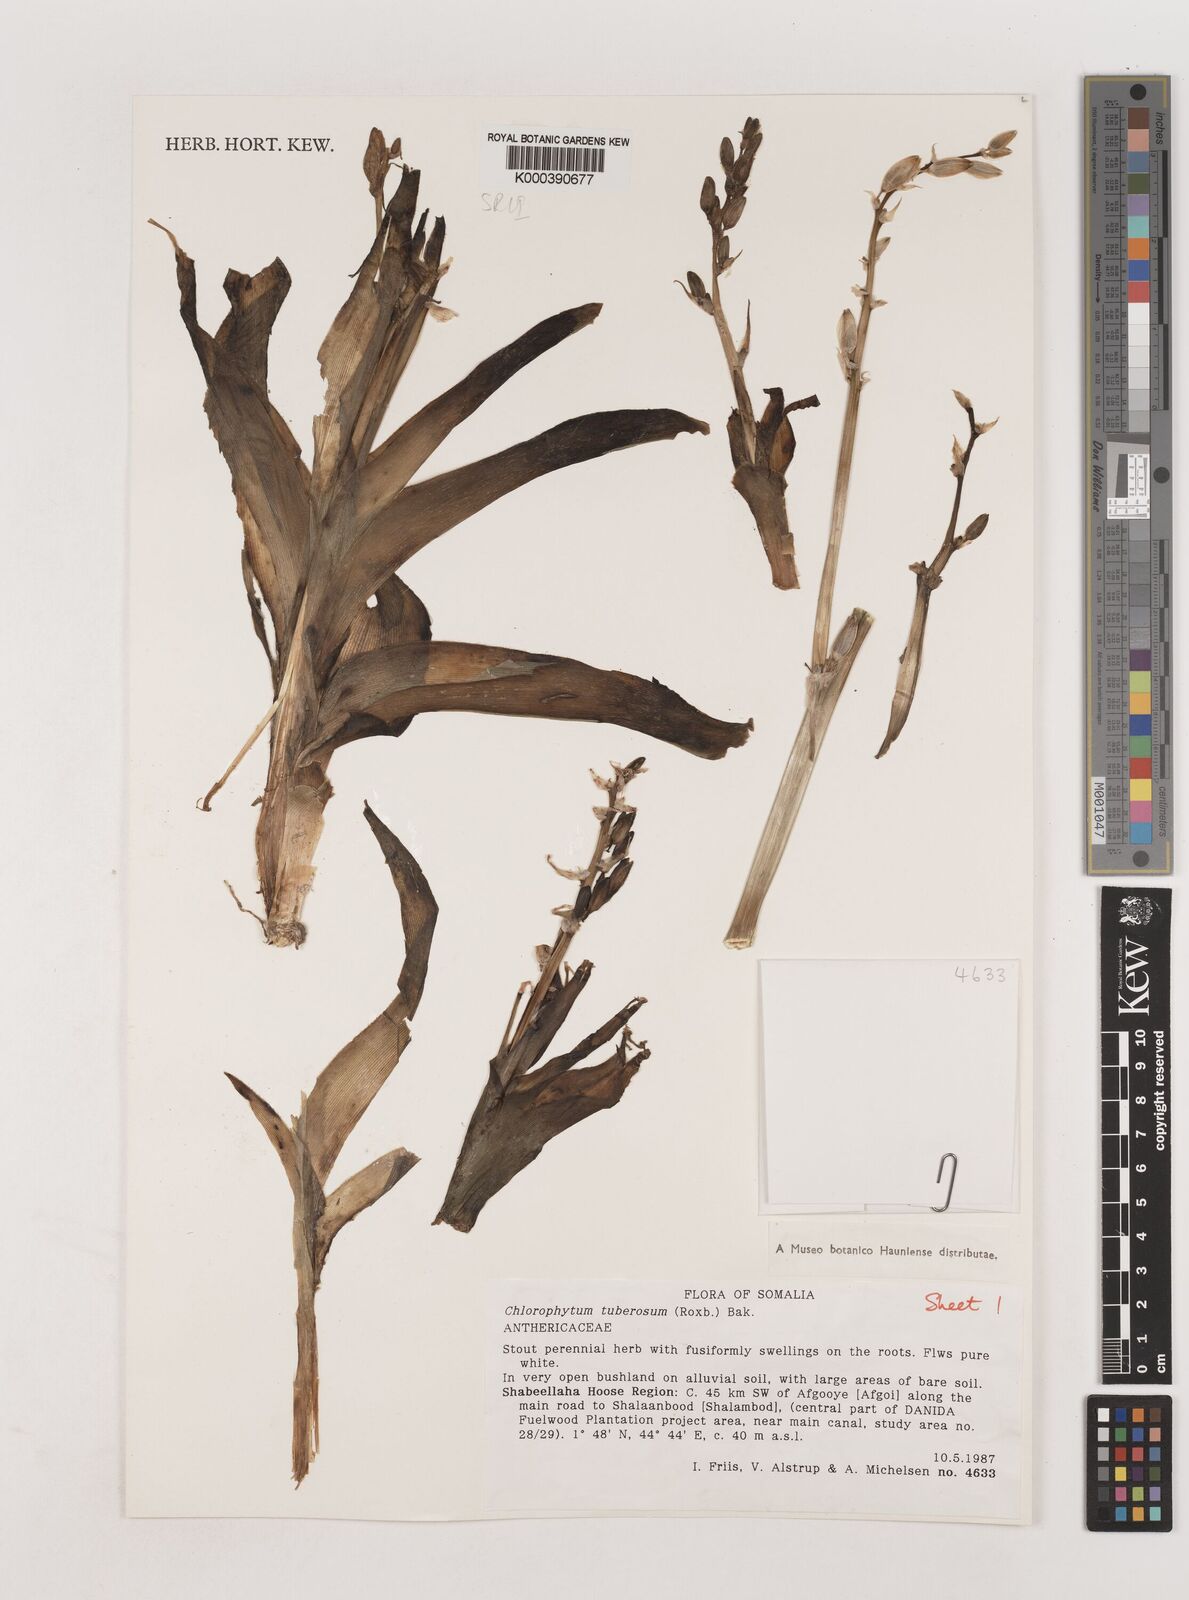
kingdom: Plantae
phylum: Tracheophyta
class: Liliopsida
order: Asparagales
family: Asparagaceae
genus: Chlorophytum
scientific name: Chlorophytum tuberosum
